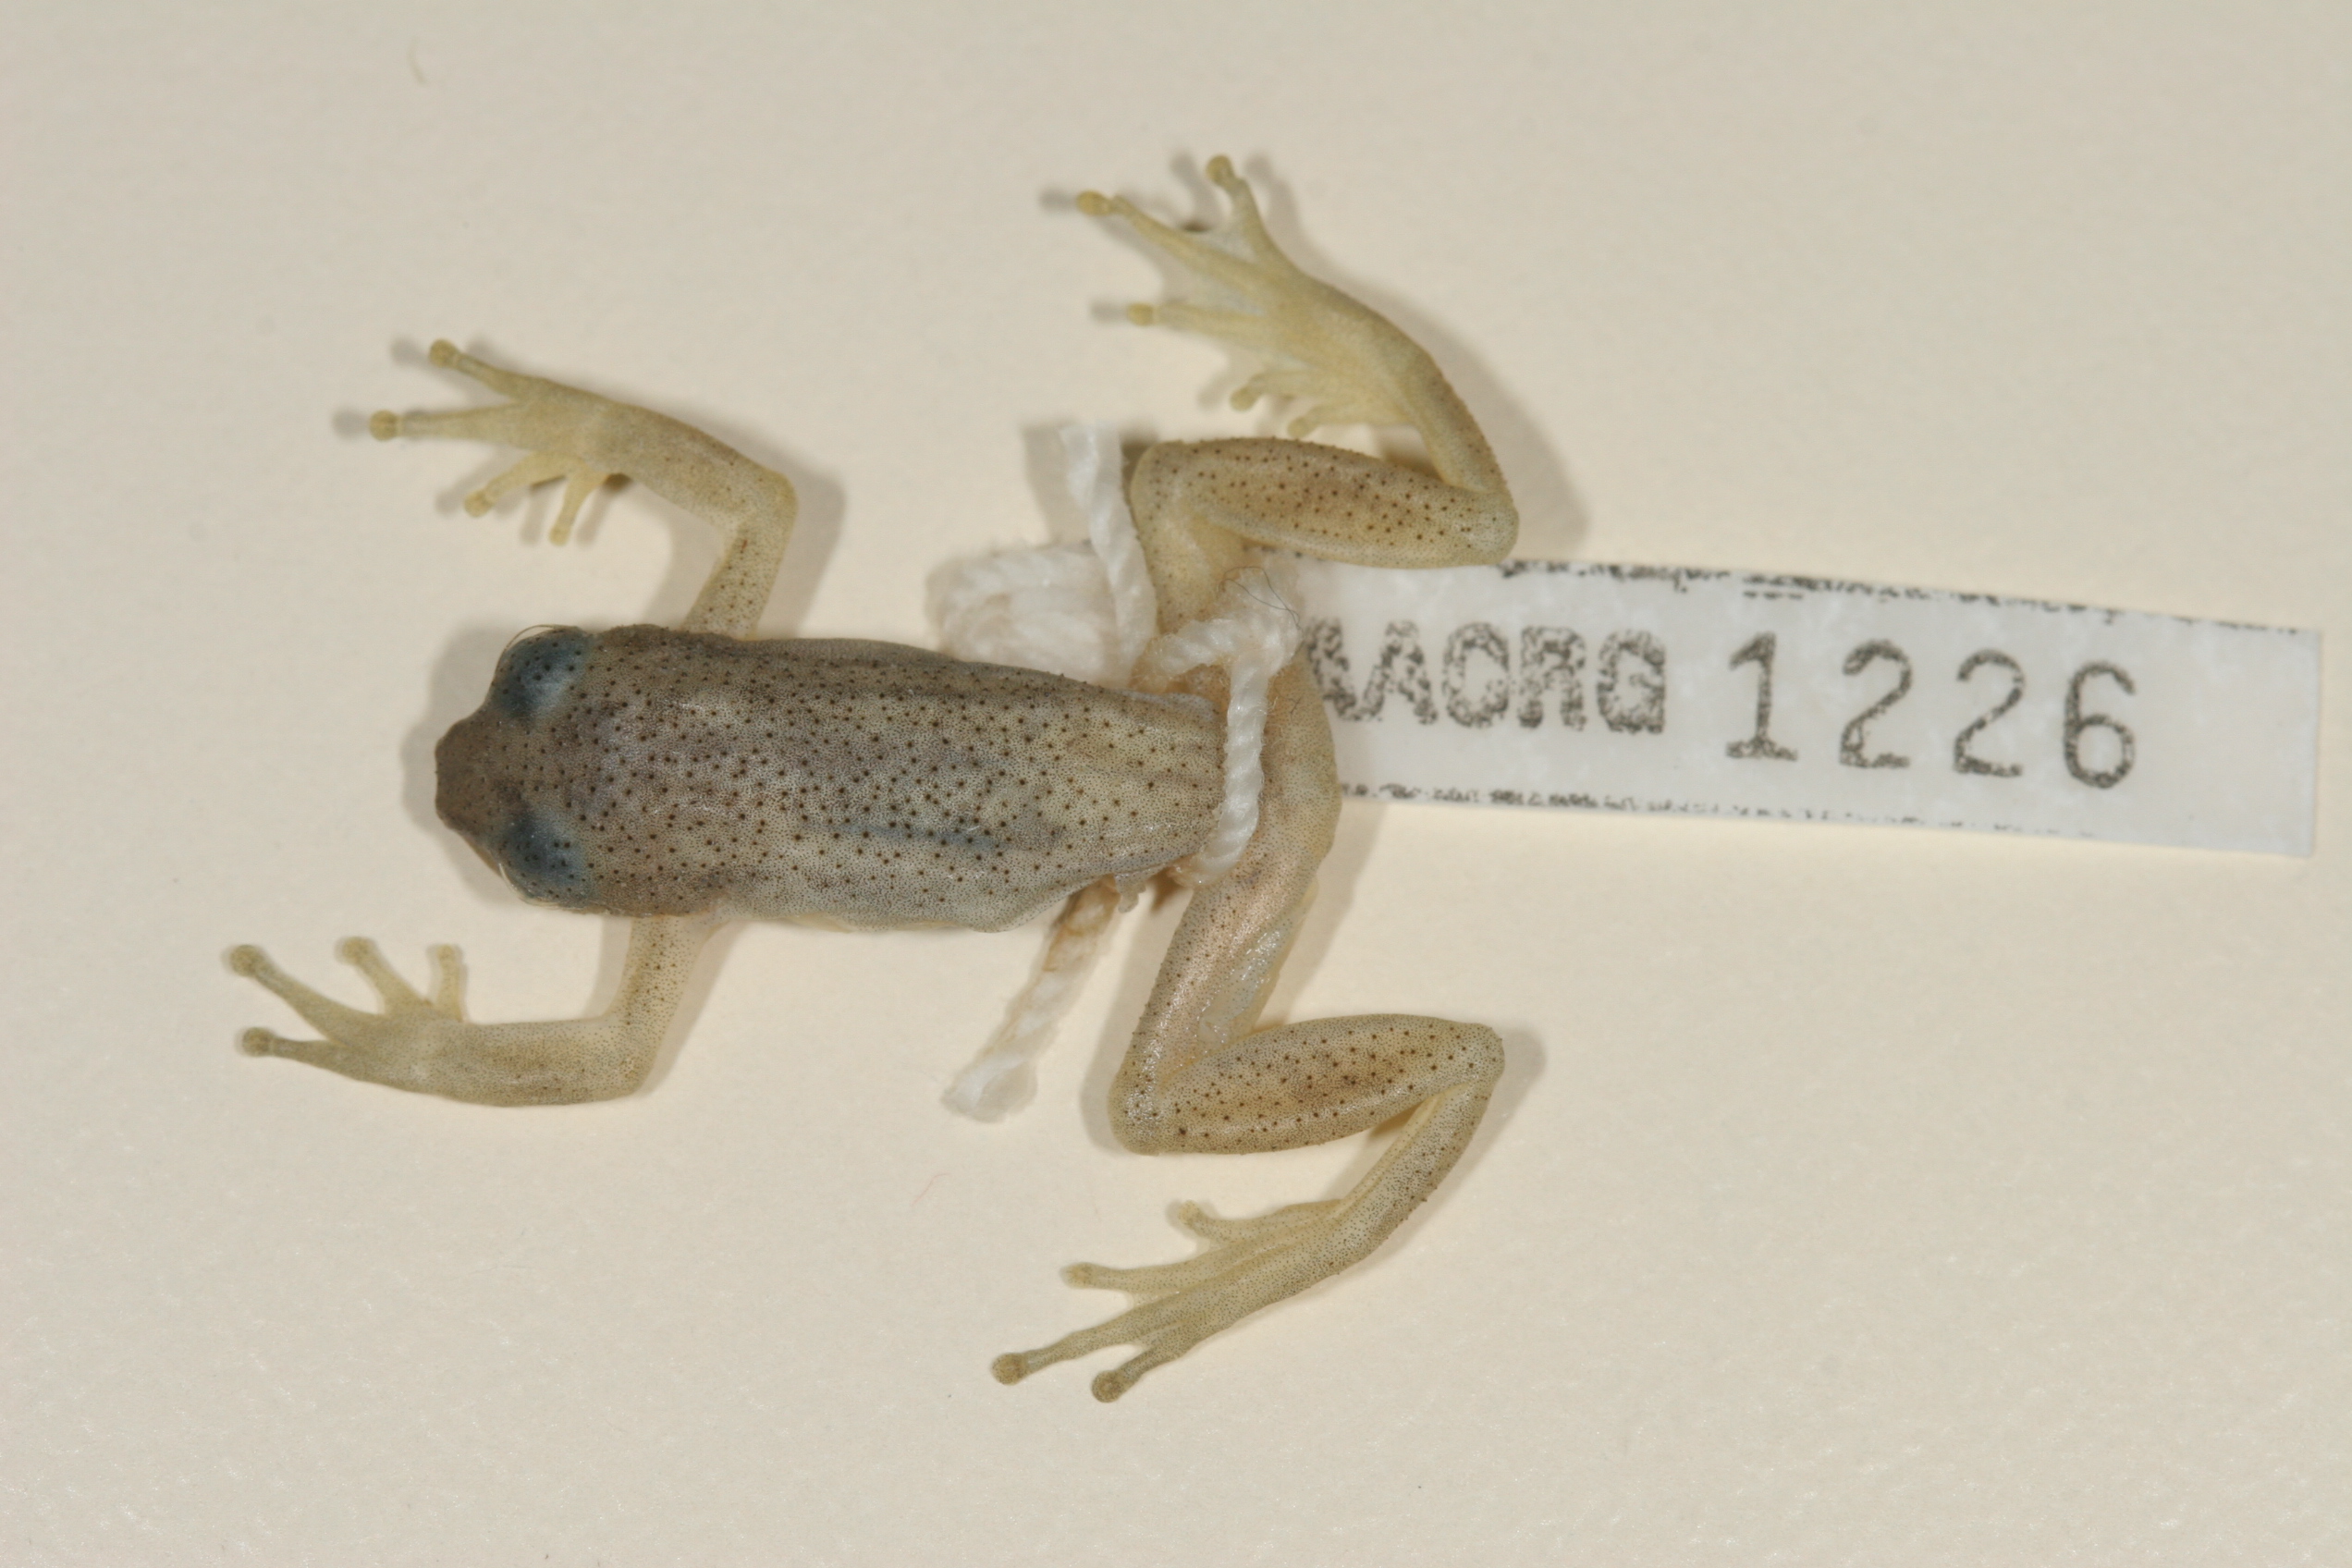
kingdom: Animalia
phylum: Chordata
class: Amphibia
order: Anura
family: Hyperoliidae
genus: Afrixalus
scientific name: Afrixalus spinifrons
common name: Natal spiny reed frog
